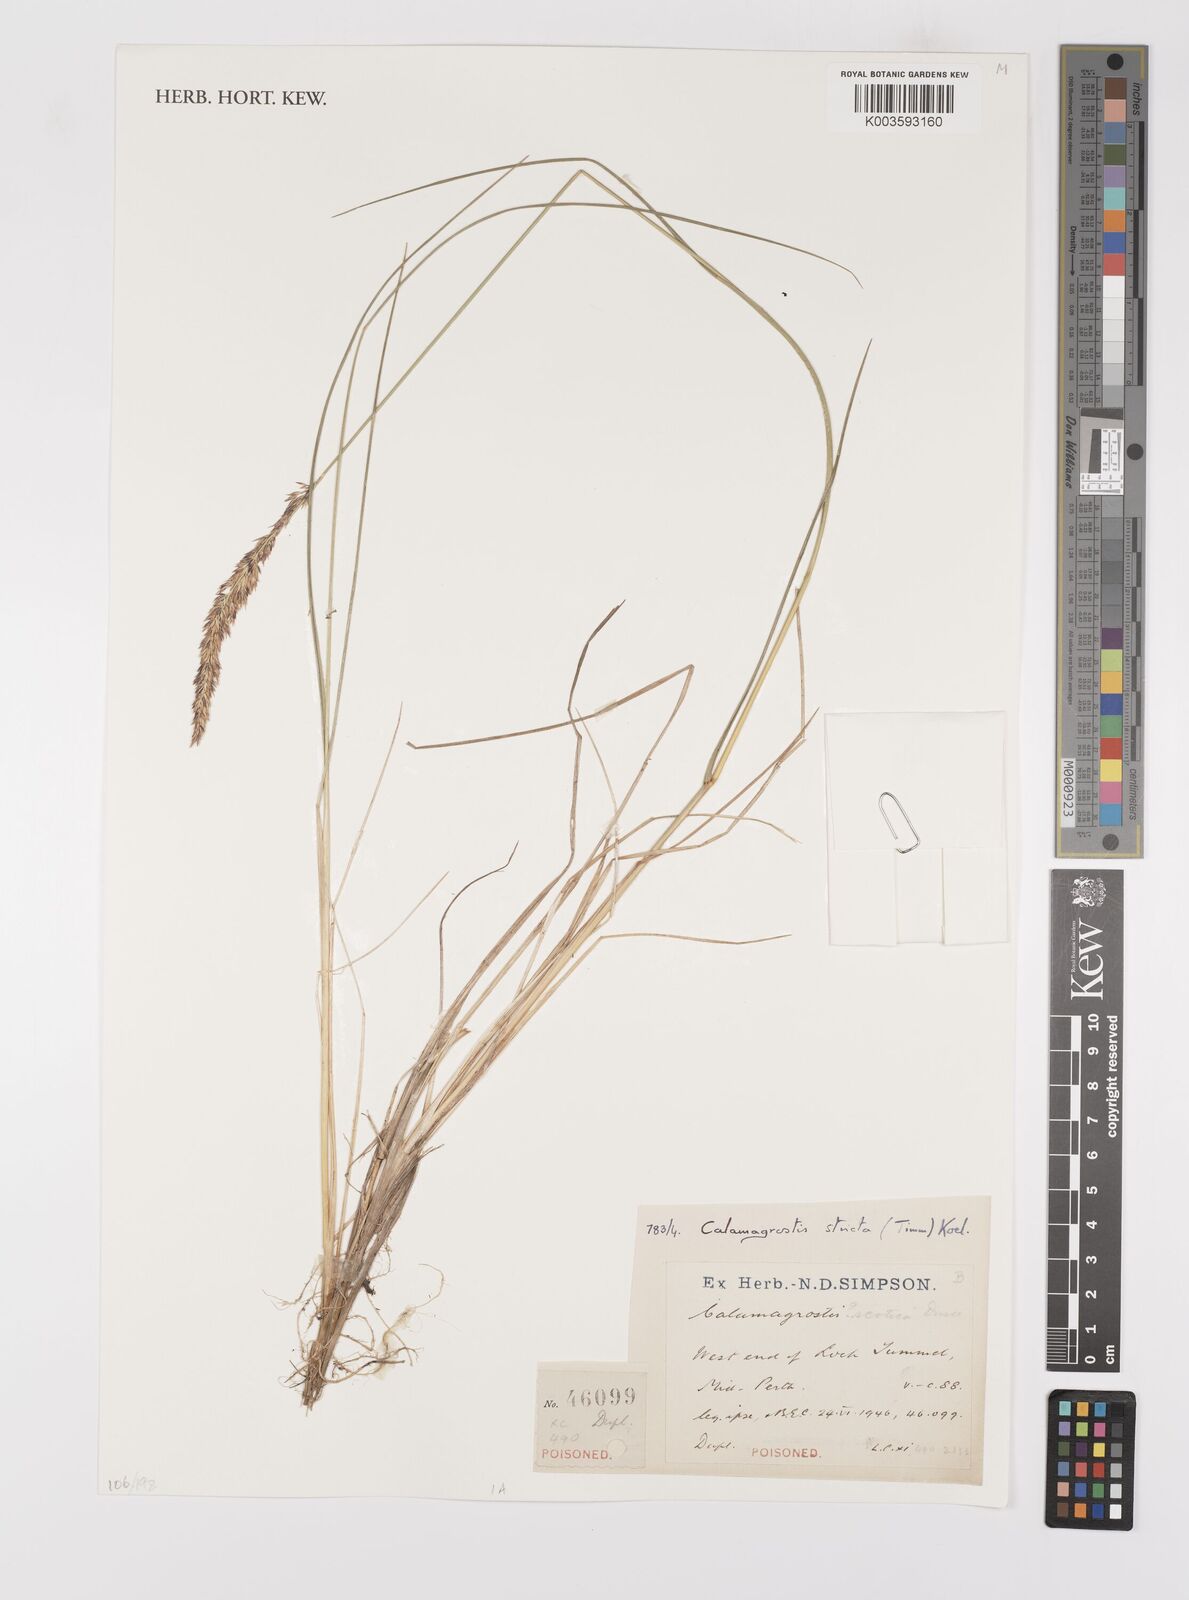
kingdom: Plantae
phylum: Tracheophyta
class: Liliopsida
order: Poales
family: Poaceae
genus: Calamagrostis
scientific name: Calamagrostis
